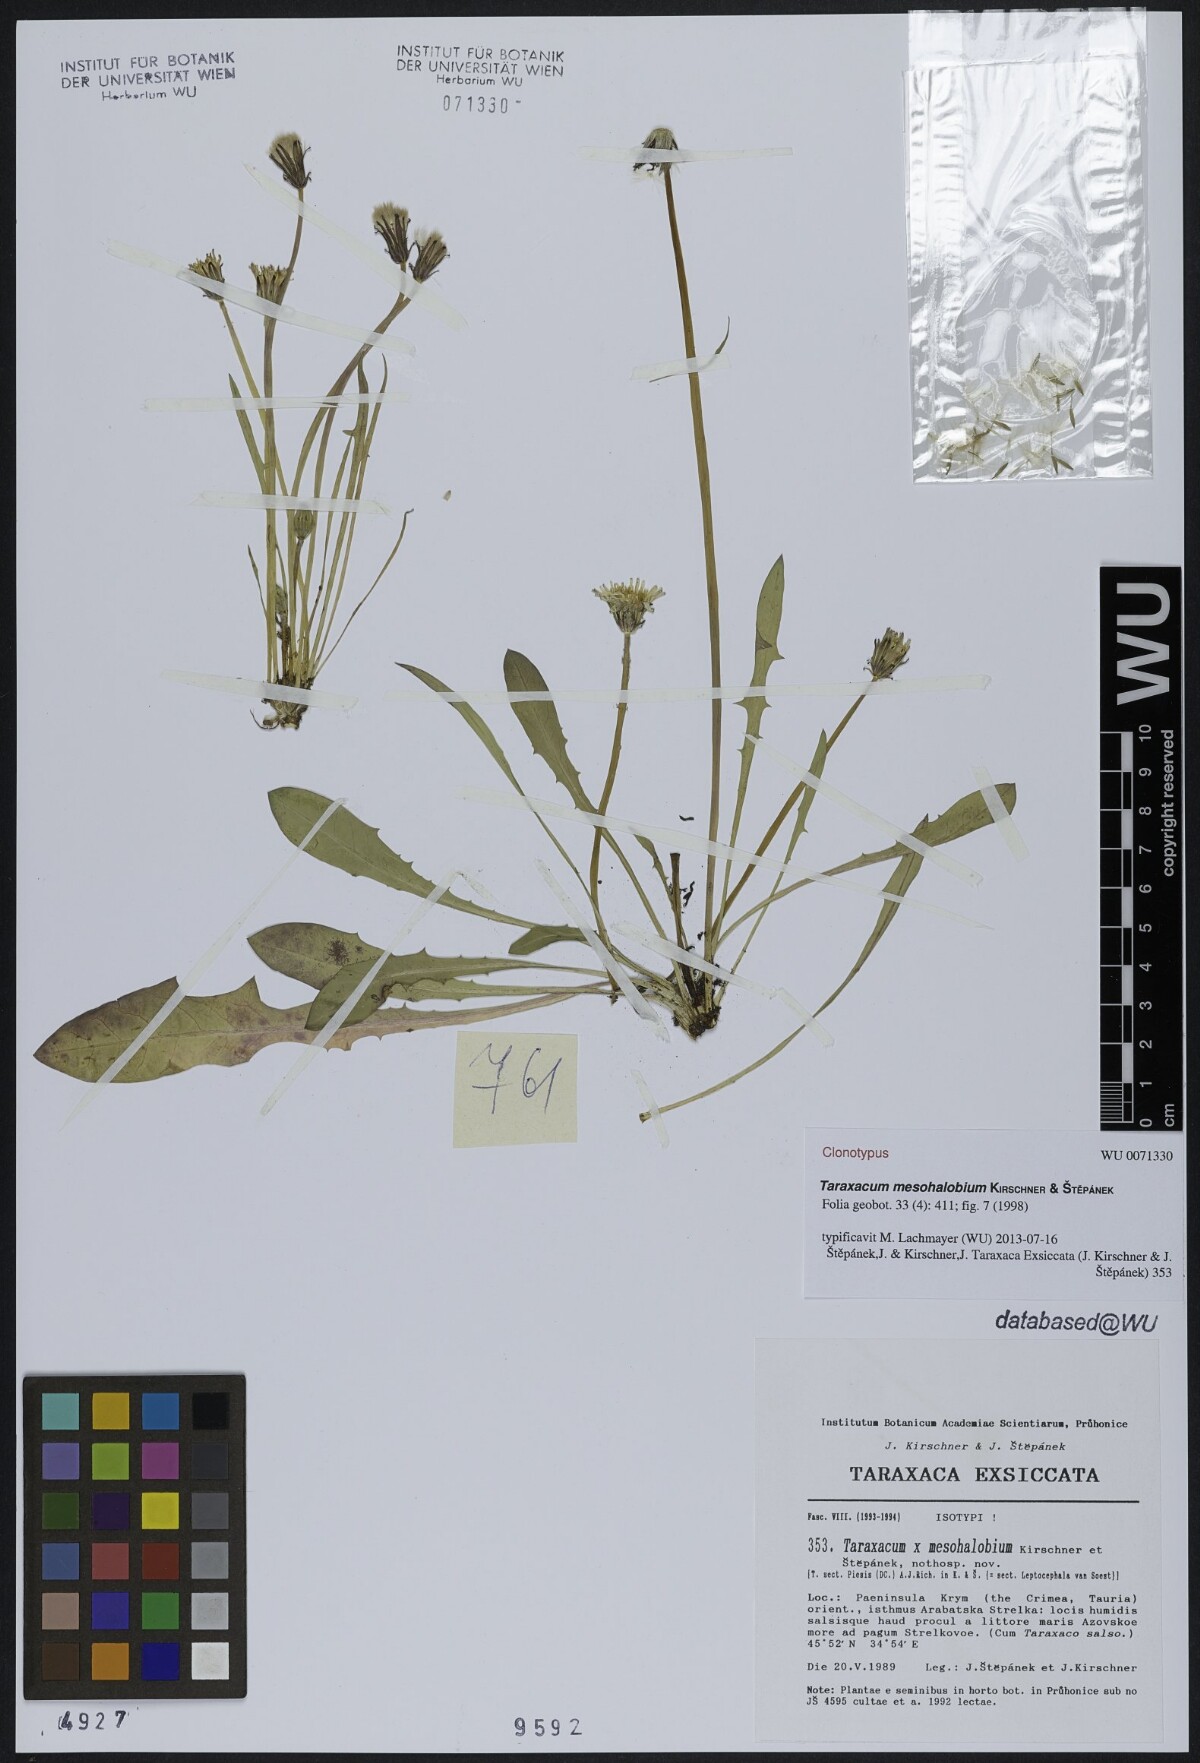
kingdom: Plantae
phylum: Tracheophyta
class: Magnoliopsida
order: Asterales
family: Asteraceae
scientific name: Asteraceae
